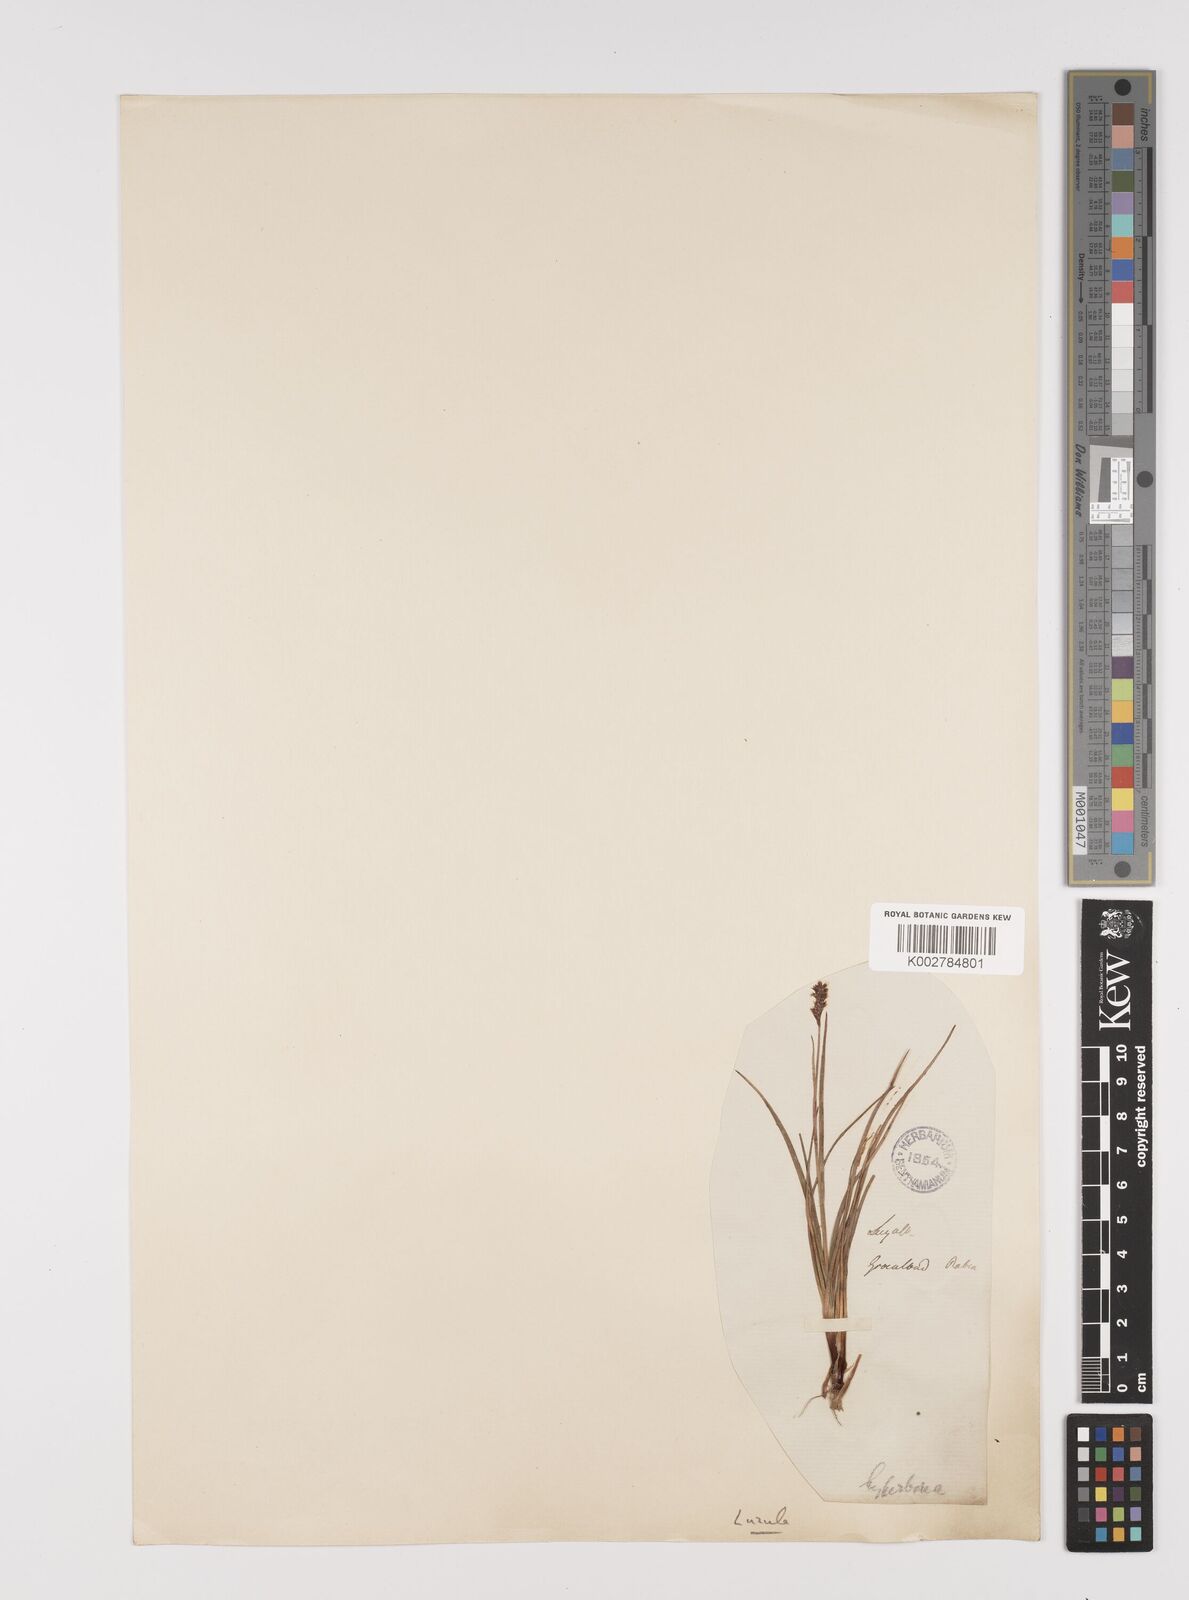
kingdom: Plantae
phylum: Tracheophyta
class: Liliopsida
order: Poales
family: Juncaceae
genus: Luzula
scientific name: Luzula confusa
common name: Northern wood rush
